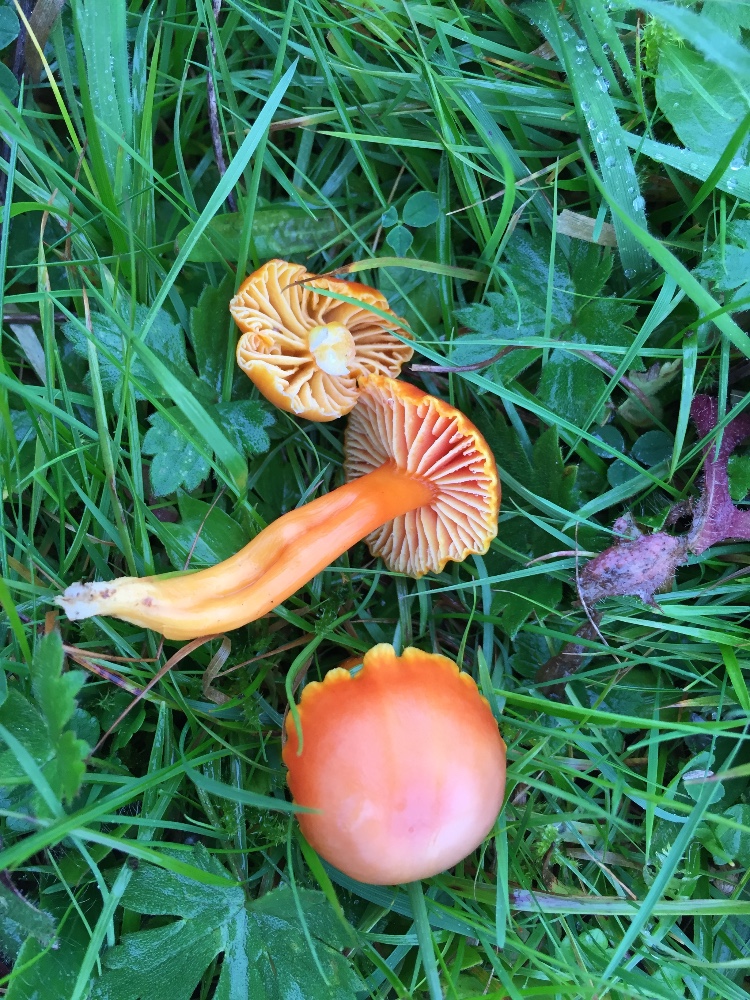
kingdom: Fungi
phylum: Basidiomycota
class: Agaricomycetes
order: Agaricales
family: Hygrophoraceae
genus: Hygrocybe
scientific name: Hygrocybe reidii
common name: honning-vokshat
